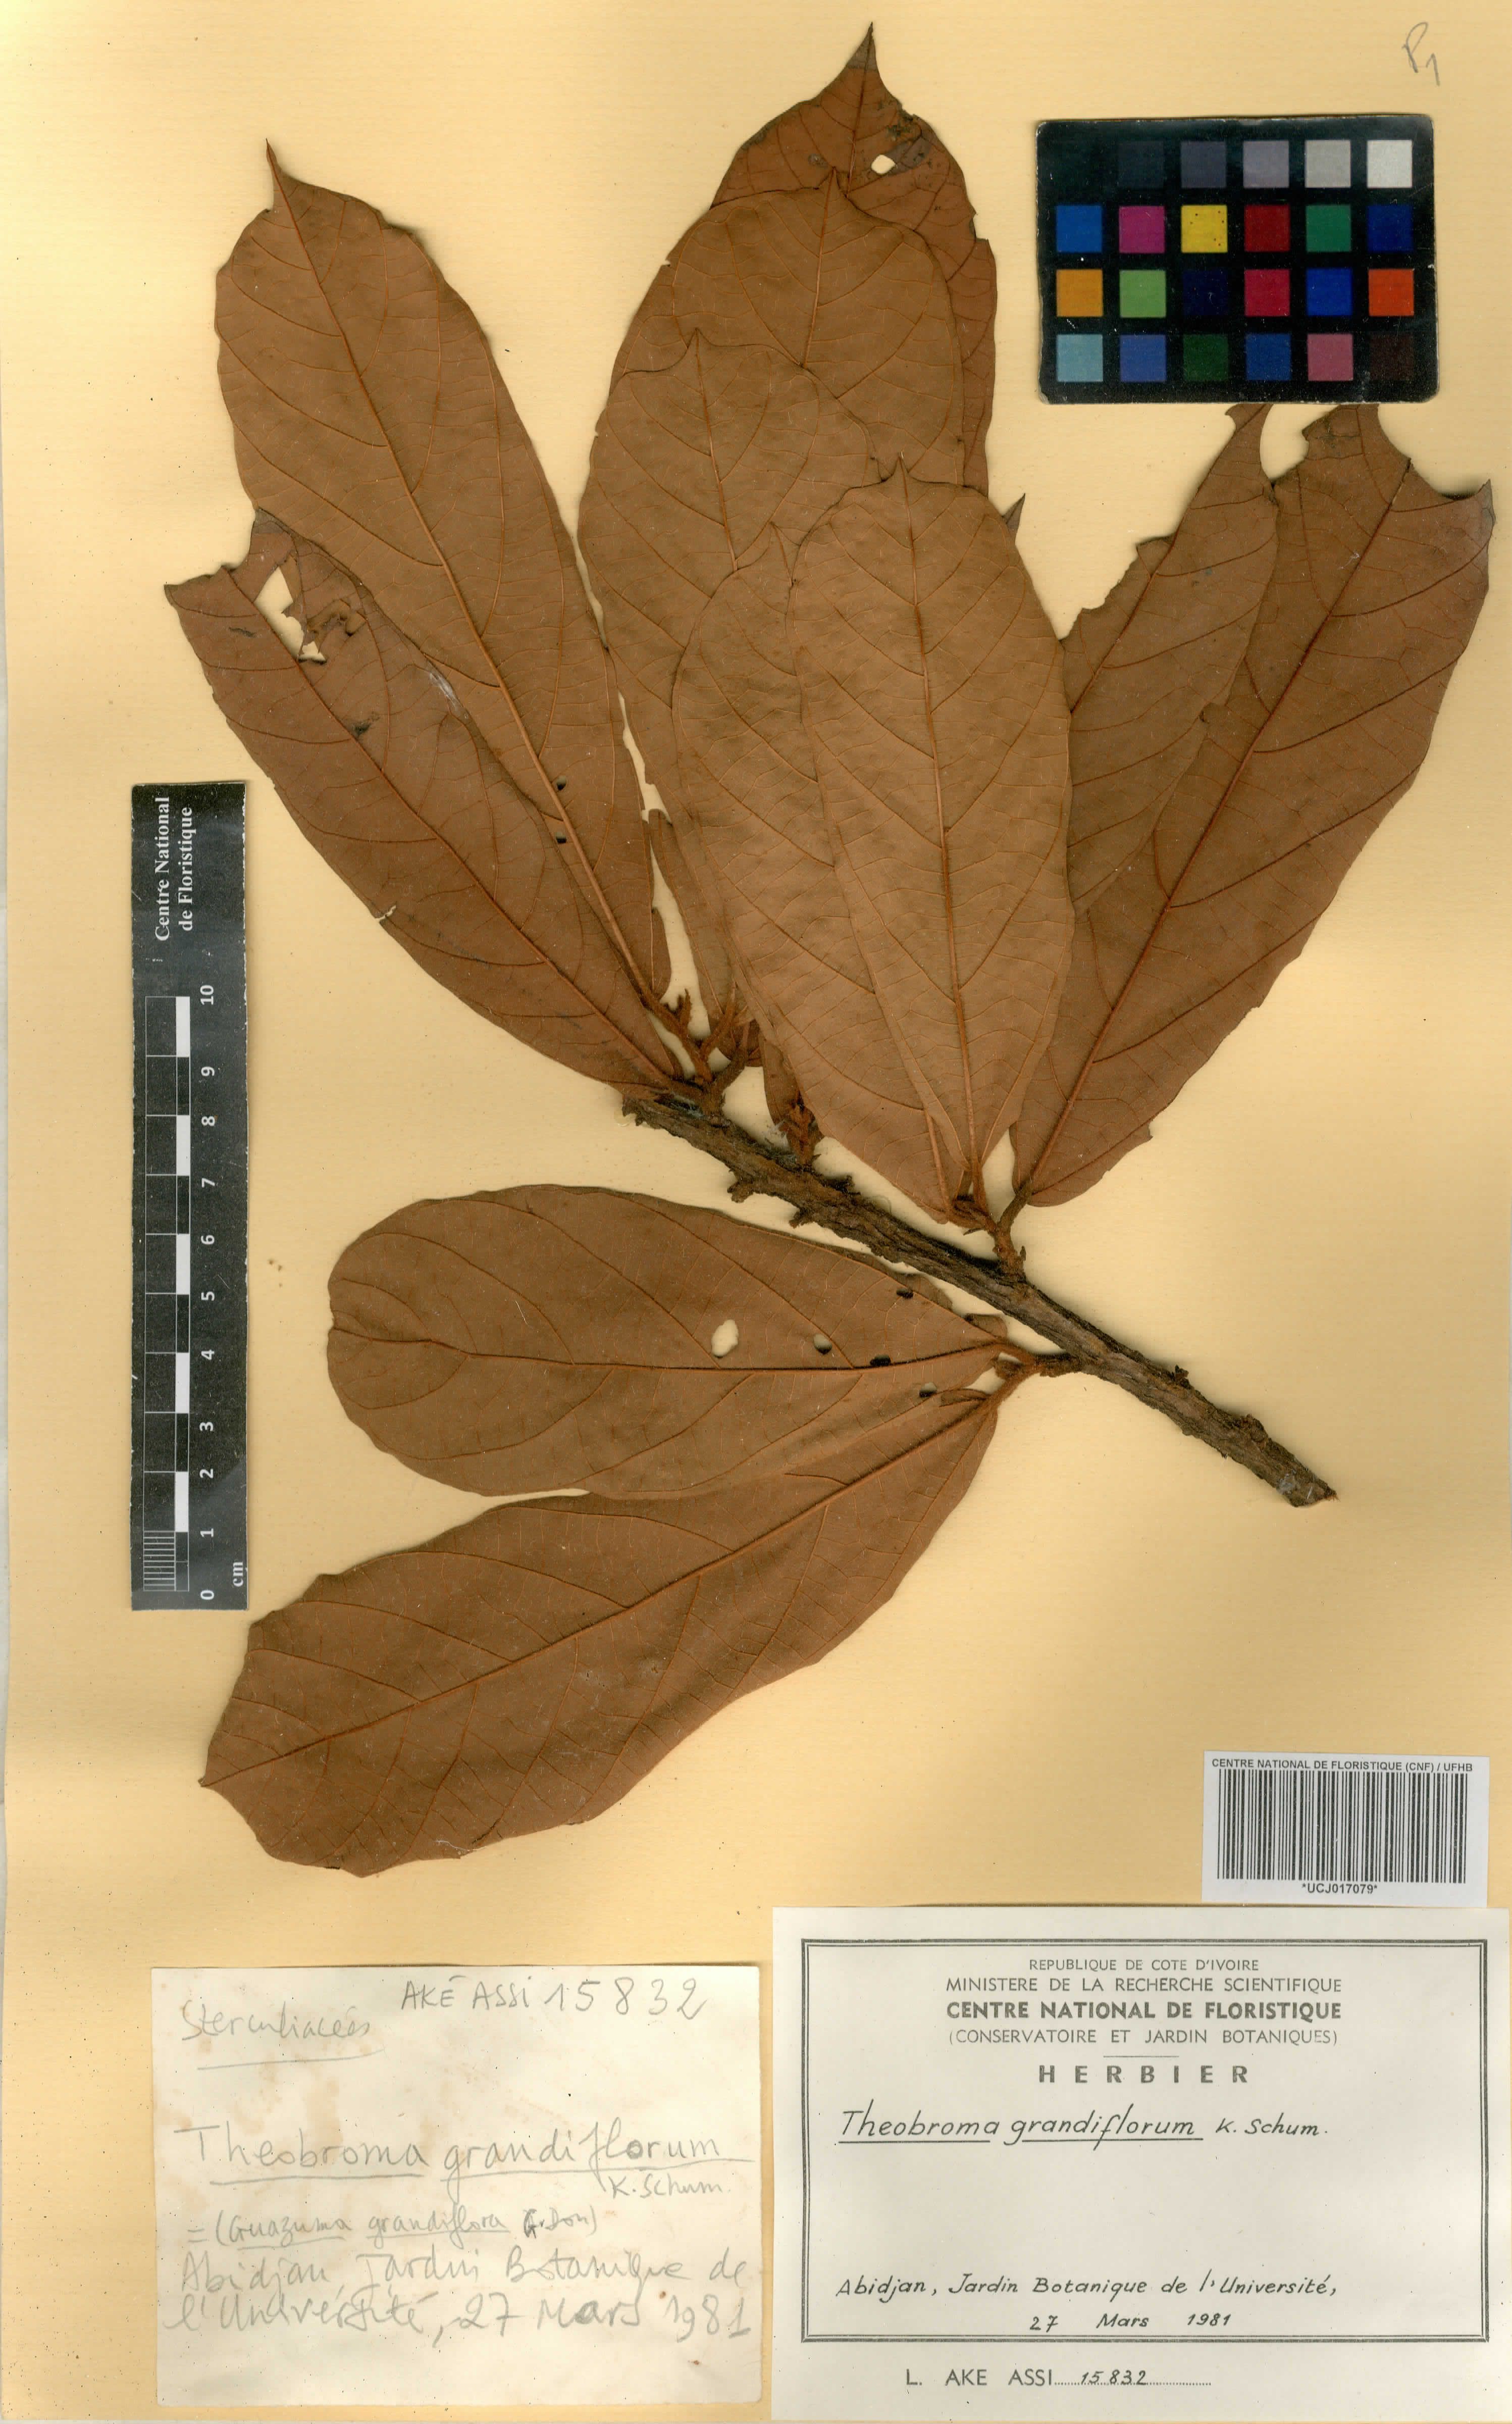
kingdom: Plantae
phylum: Tracheophyta
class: Magnoliopsida
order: Malvales
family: Malvaceae
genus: Theobroma
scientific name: Theobroma grandiflorum
